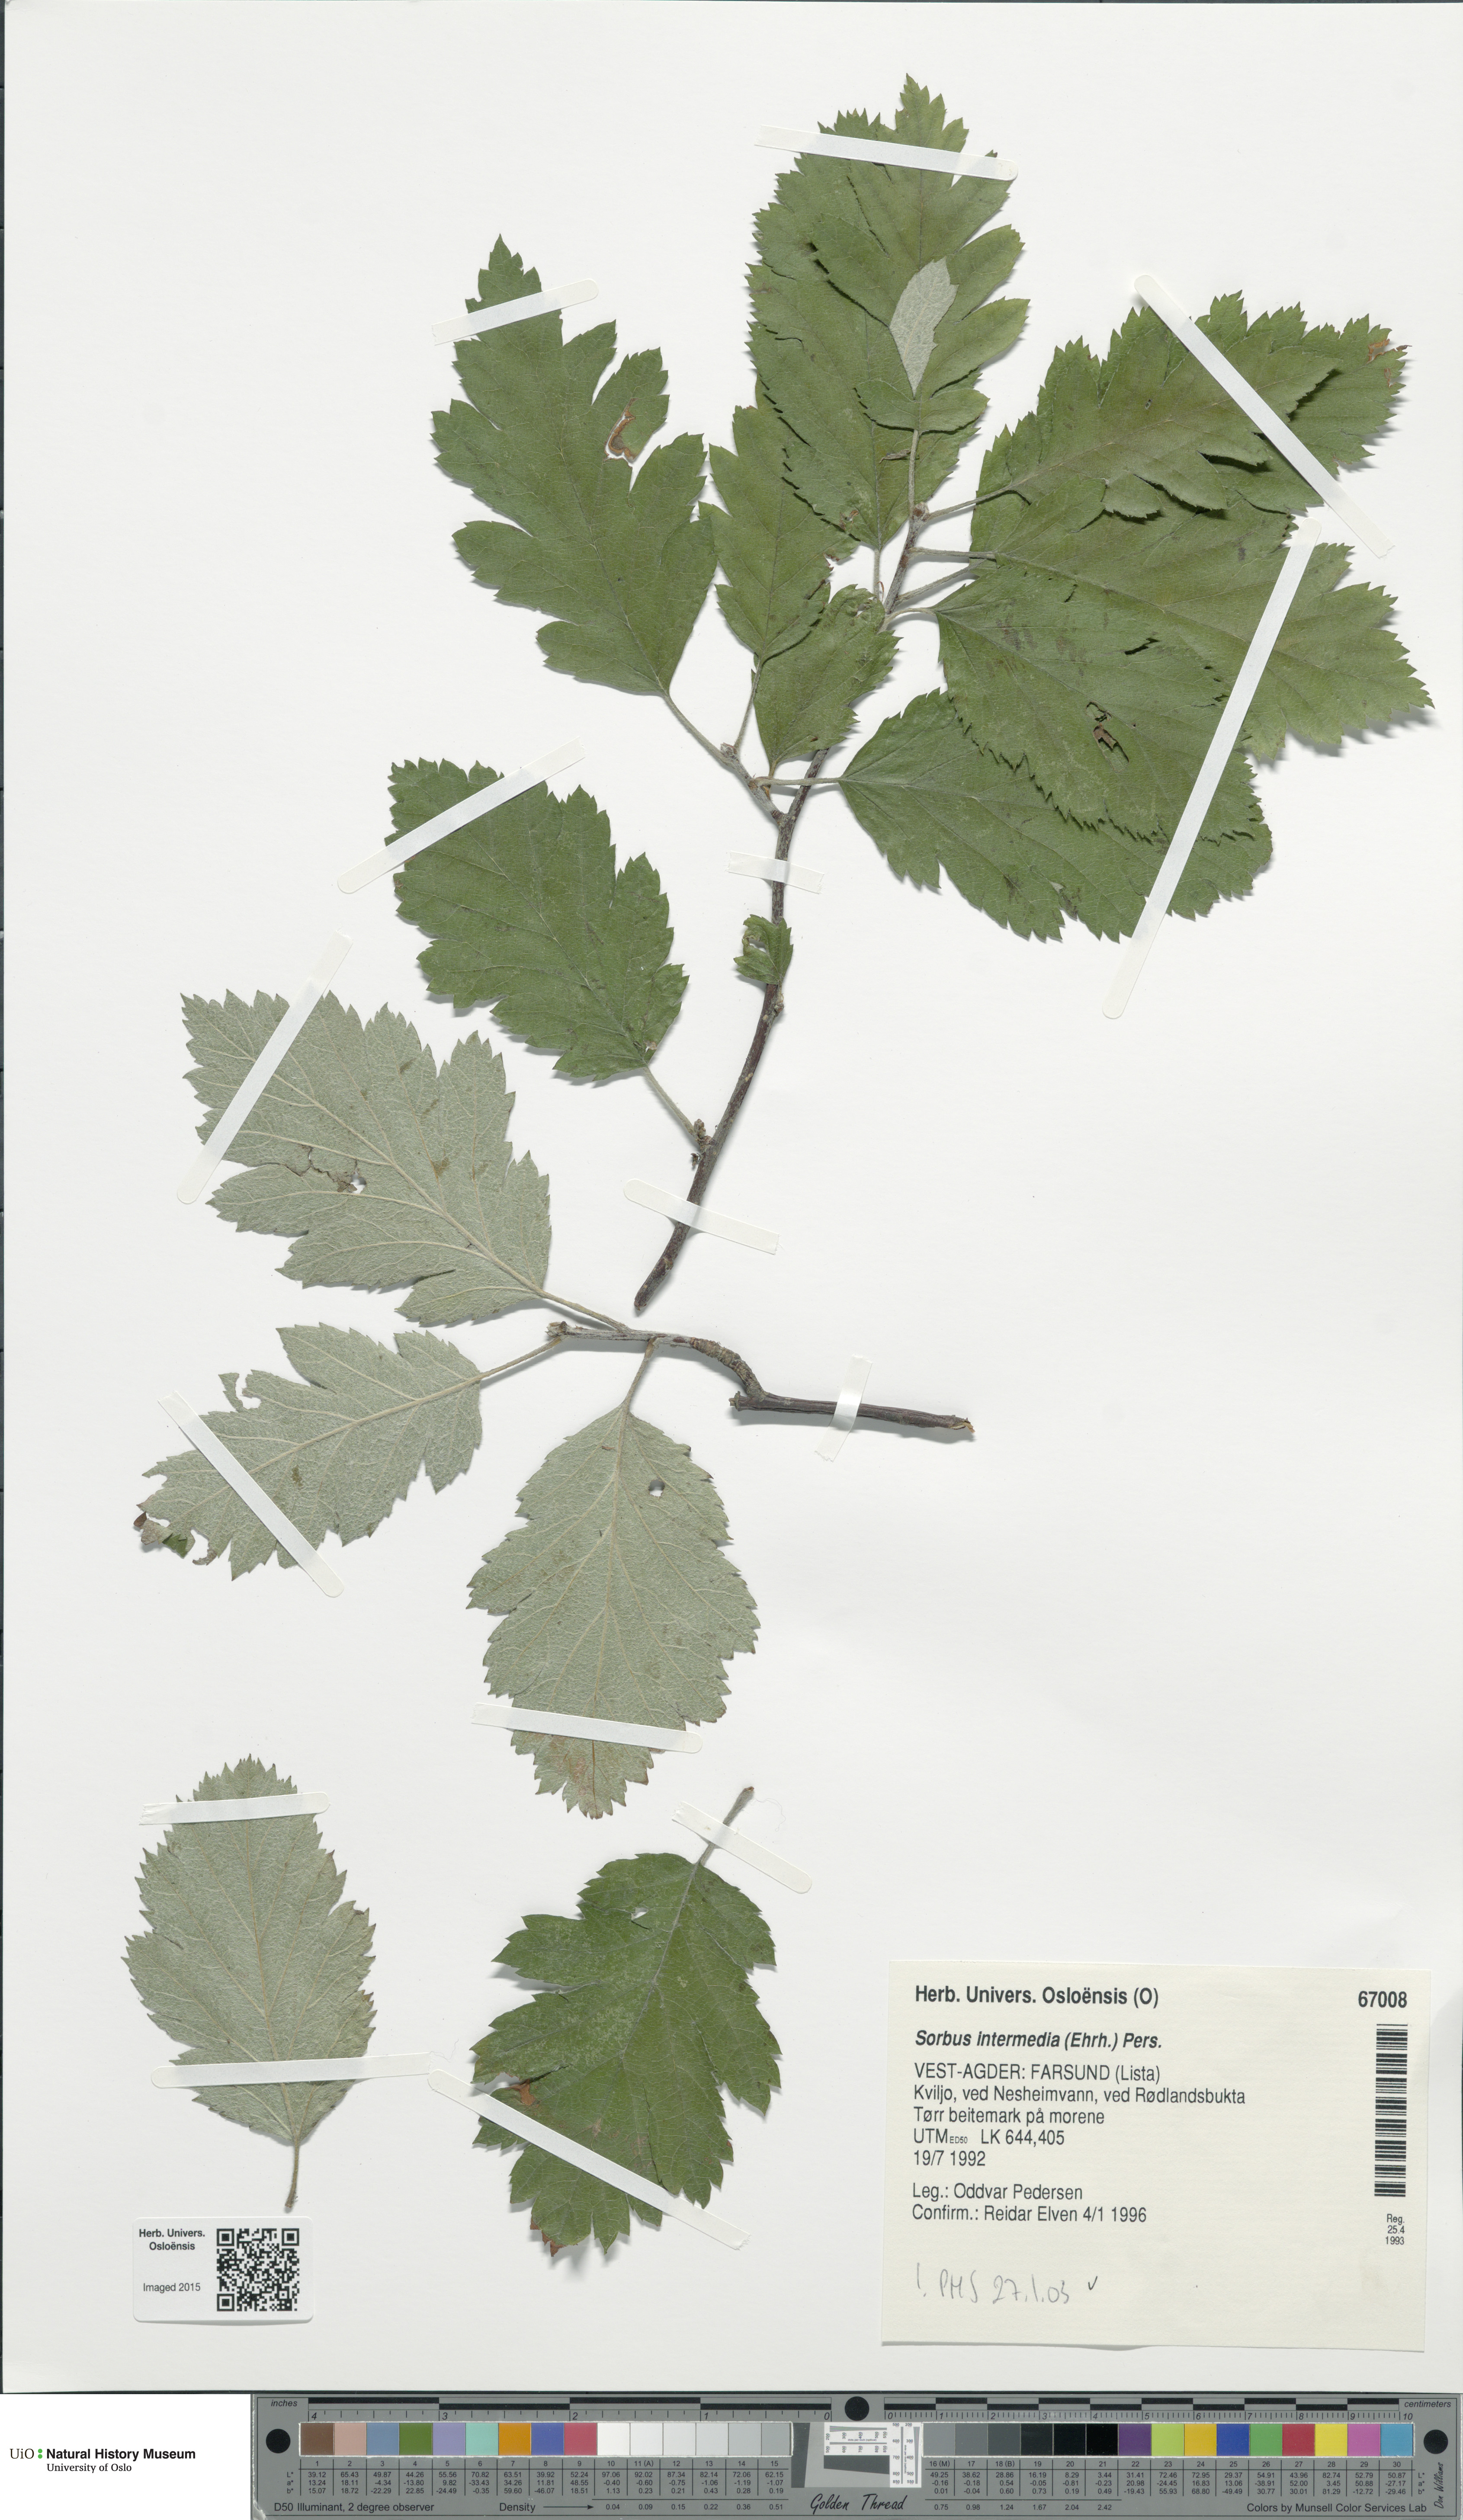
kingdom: Plantae
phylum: Tracheophyta
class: Magnoliopsida
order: Rosales
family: Rosaceae
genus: Scandosorbus
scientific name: Scandosorbus intermedia
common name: Swedish whitebeam
